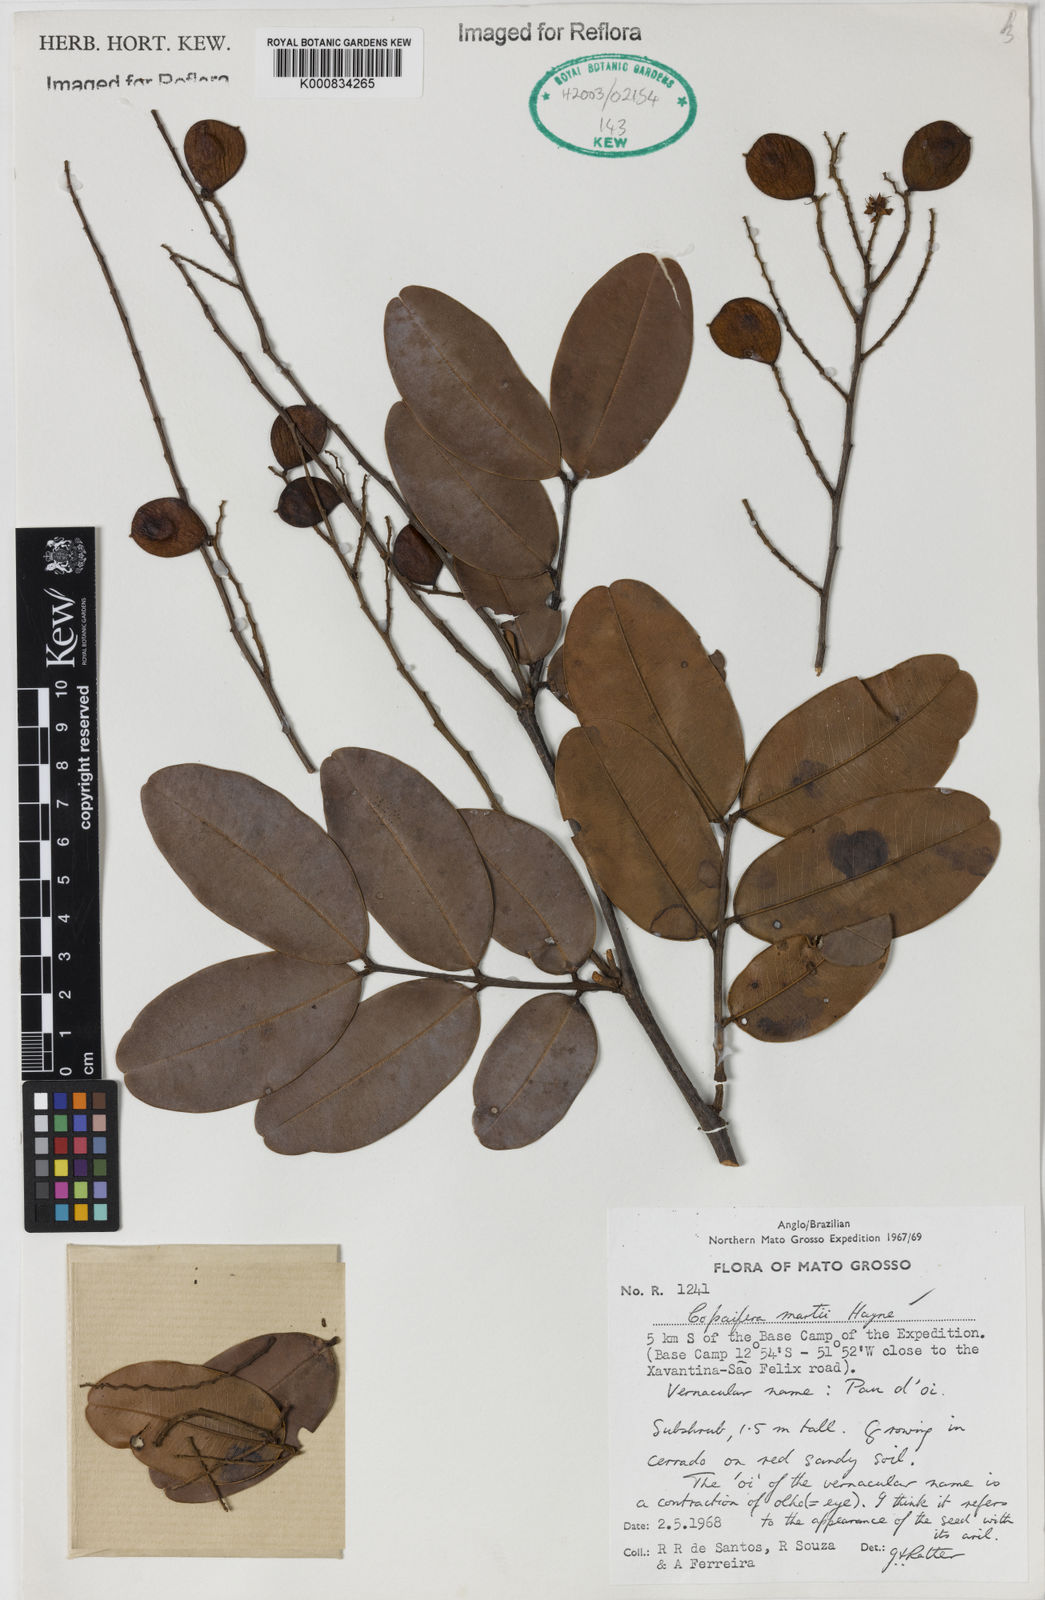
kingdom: Plantae
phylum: Tracheophyta
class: Magnoliopsida
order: Fabales
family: Fabaceae
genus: Copaifera
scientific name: Copaifera martii
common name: Copaiba
